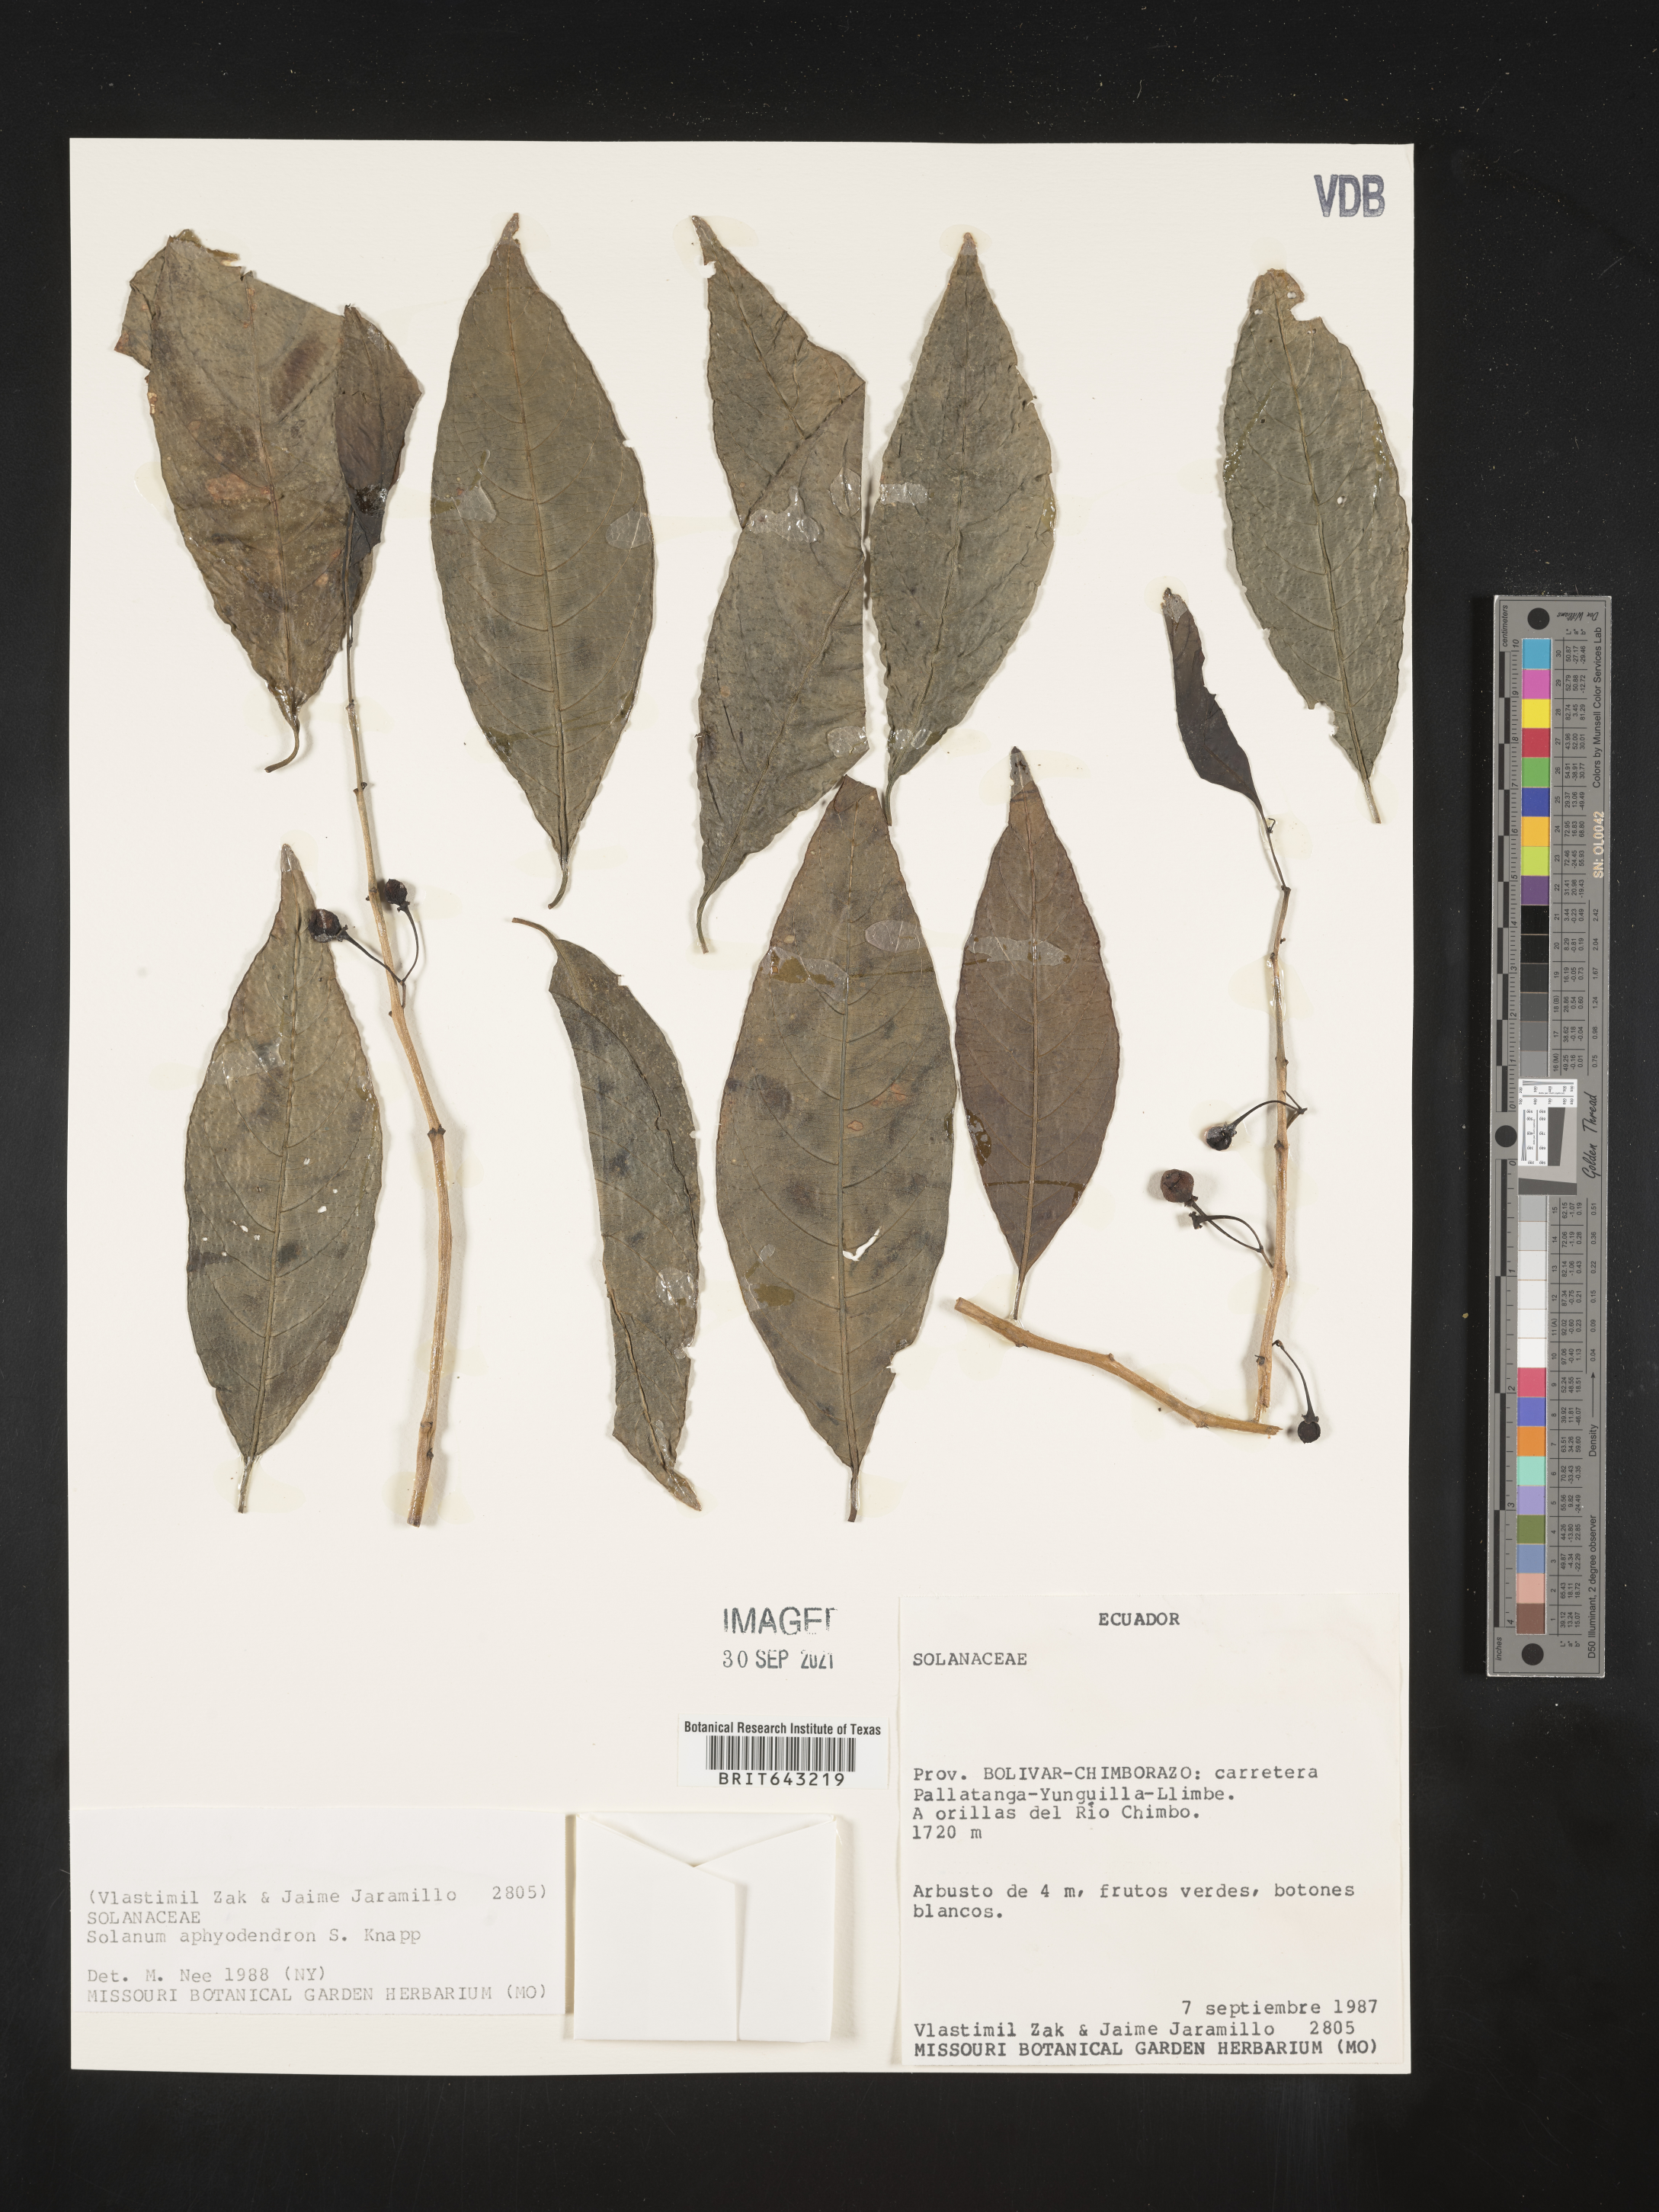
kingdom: Plantae
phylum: Tracheophyta
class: Magnoliopsida
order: Solanales
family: Solanaceae
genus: Solanum
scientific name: Solanum
